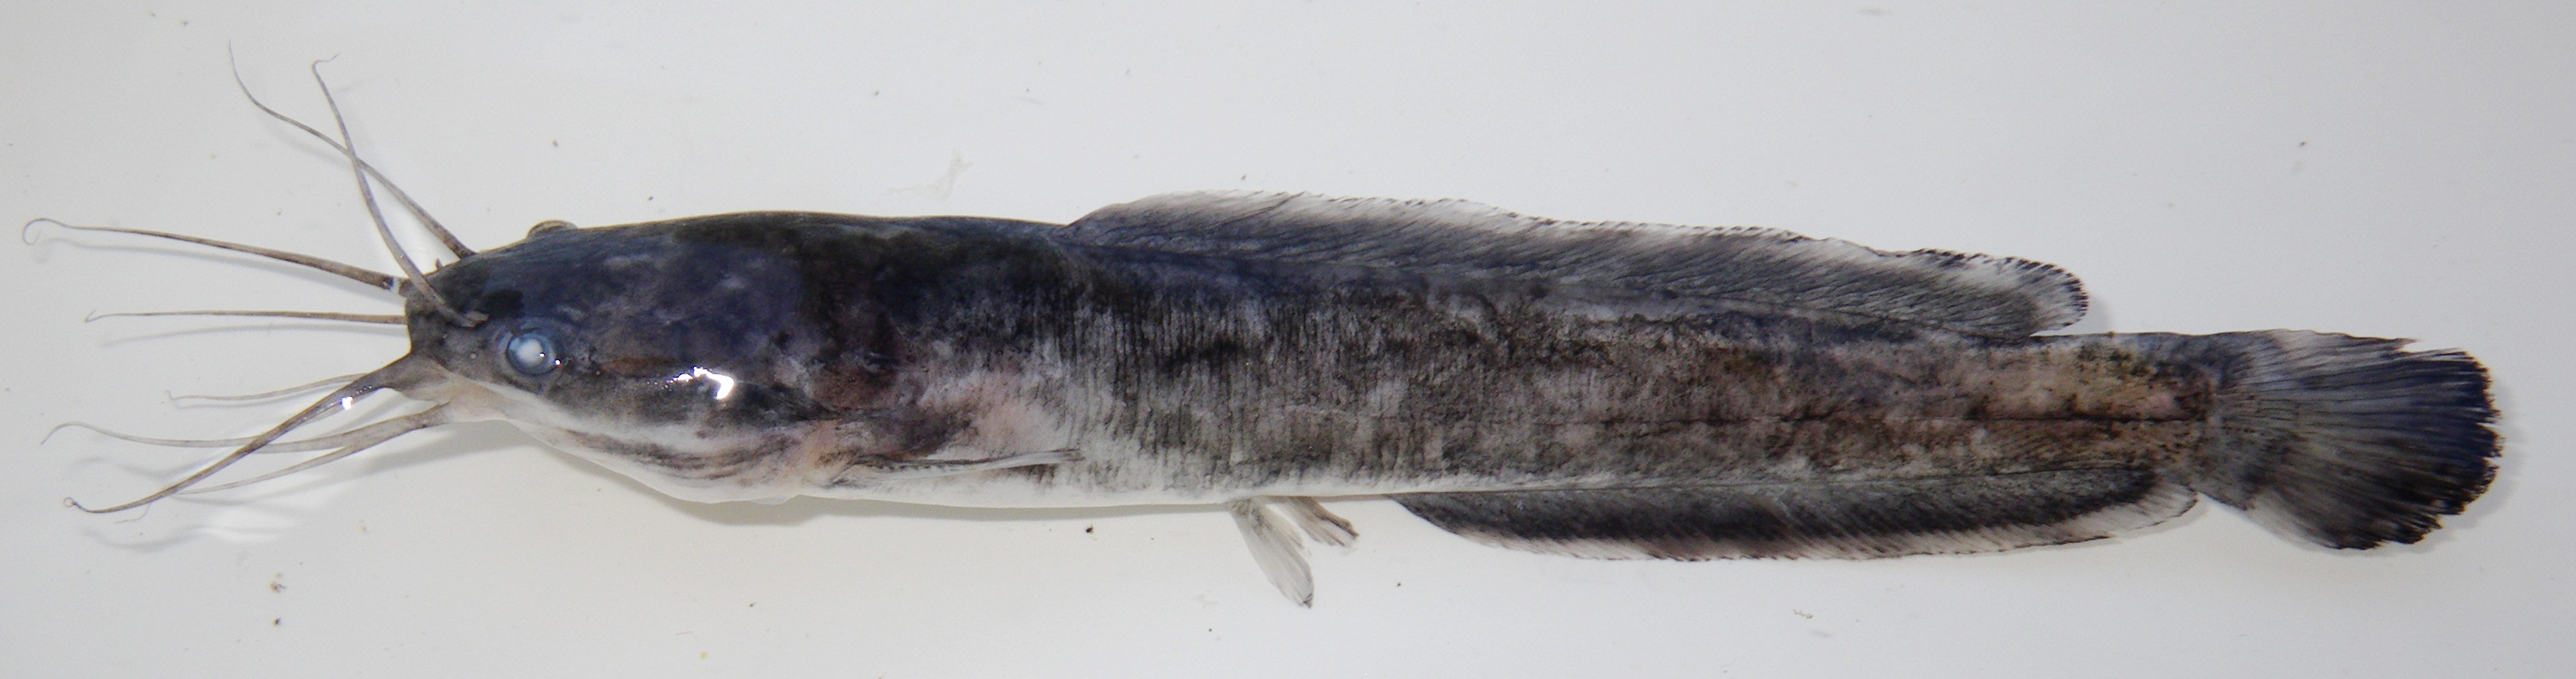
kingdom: Animalia
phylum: Chordata
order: Siluriformes
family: Clariidae
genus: Clarias
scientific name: Clarias ngamensis
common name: Blunt-toothed african catfish
